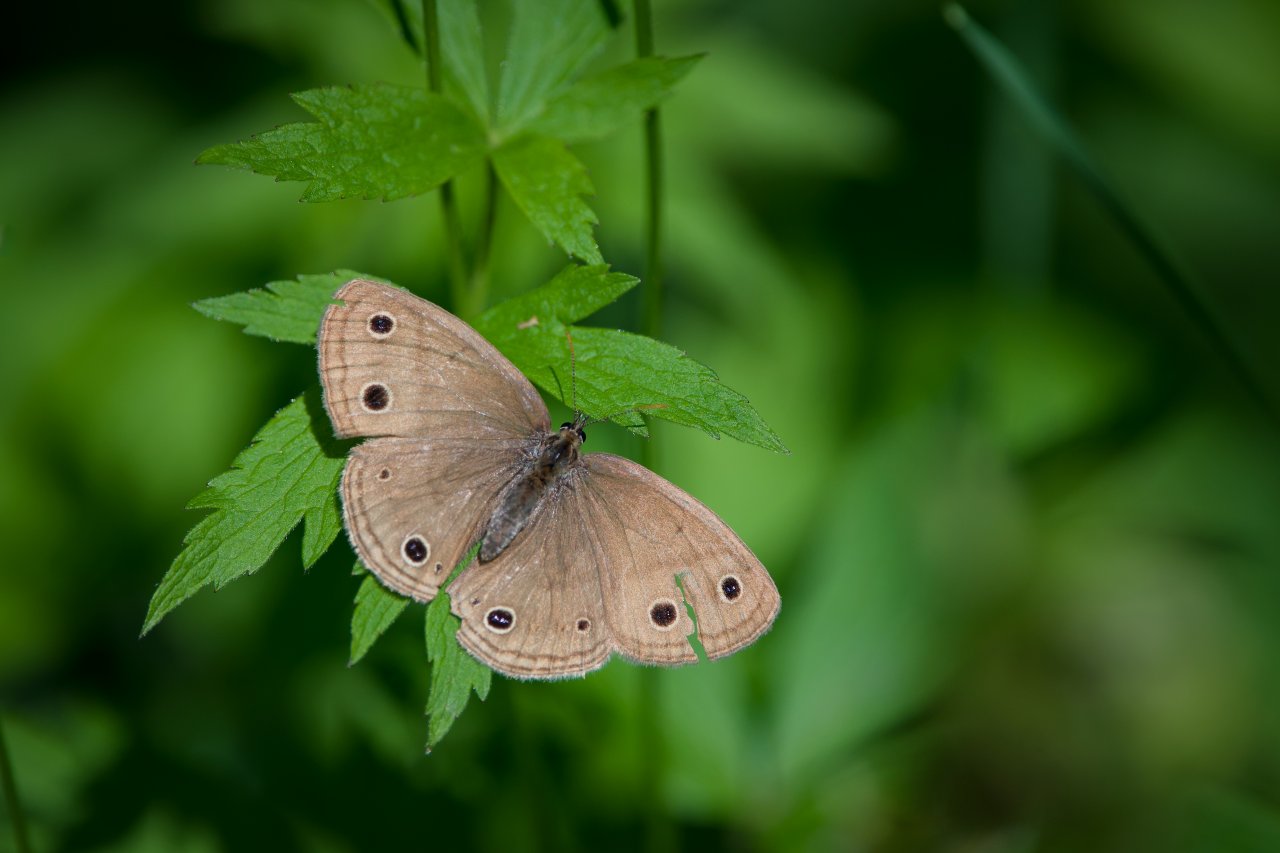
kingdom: Animalia
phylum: Arthropoda
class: Insecta
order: Lepidoptera
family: Nymphalidae
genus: Euptychia
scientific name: Euptychia cymela
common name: Little Wood Satyr
